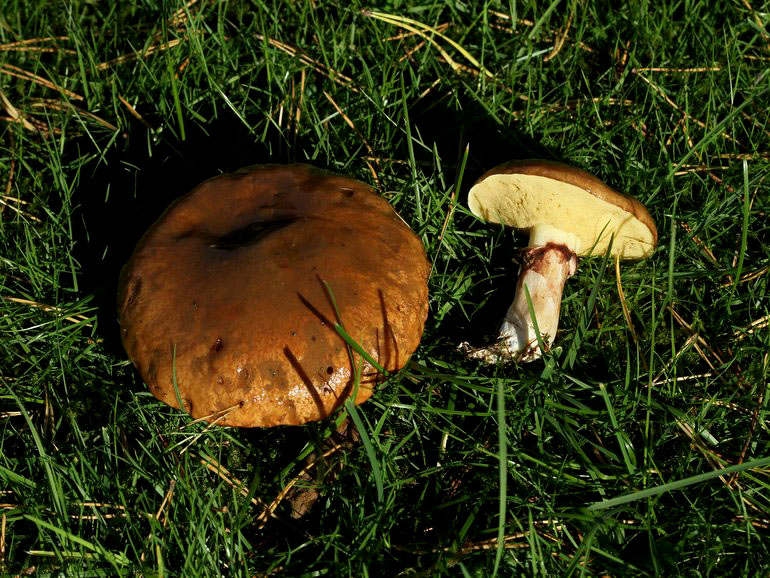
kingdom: Fungi
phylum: Basidiomycota
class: Agaricomycetes
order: Boletales
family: Suillaceae
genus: Suillus
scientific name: Suillus luteus
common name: brungul slimrørhat
